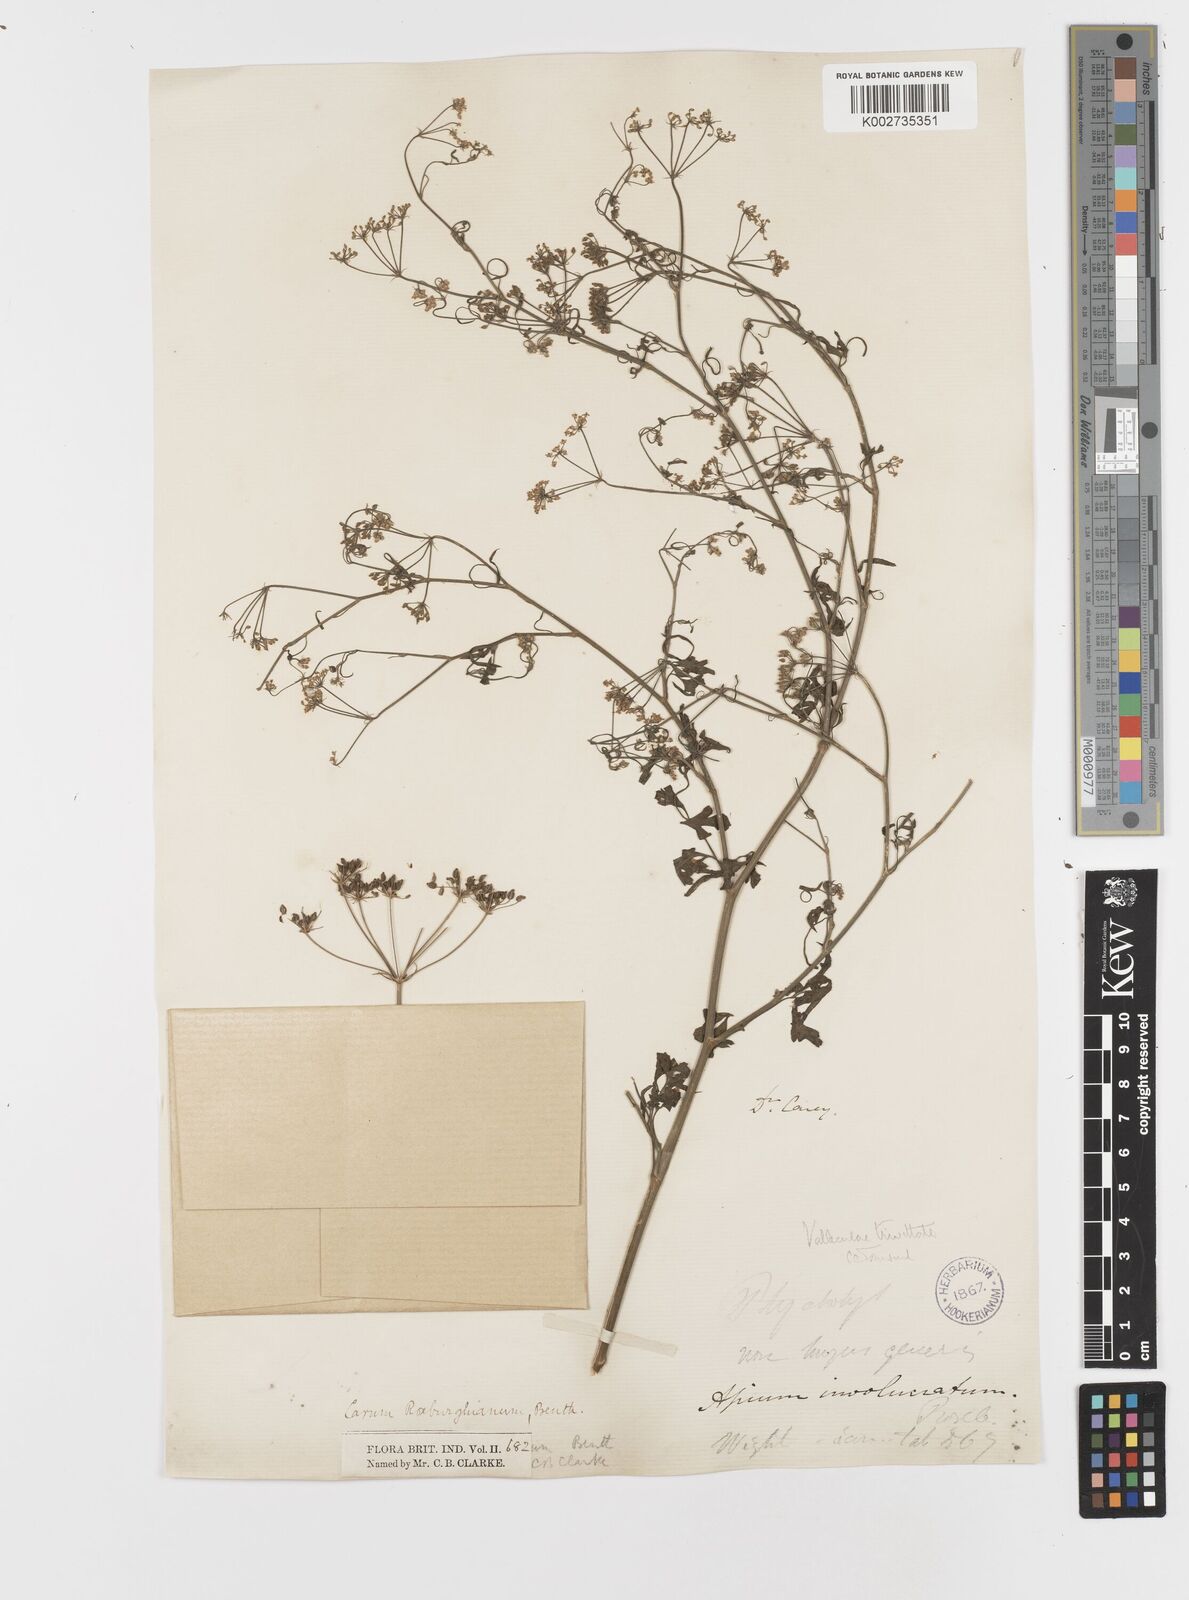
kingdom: Plantae
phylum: Tracheophyta
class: Magnoliopsida
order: Apiales
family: Apiaceae
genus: Psammogeton
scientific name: Psammogeton involucratum
